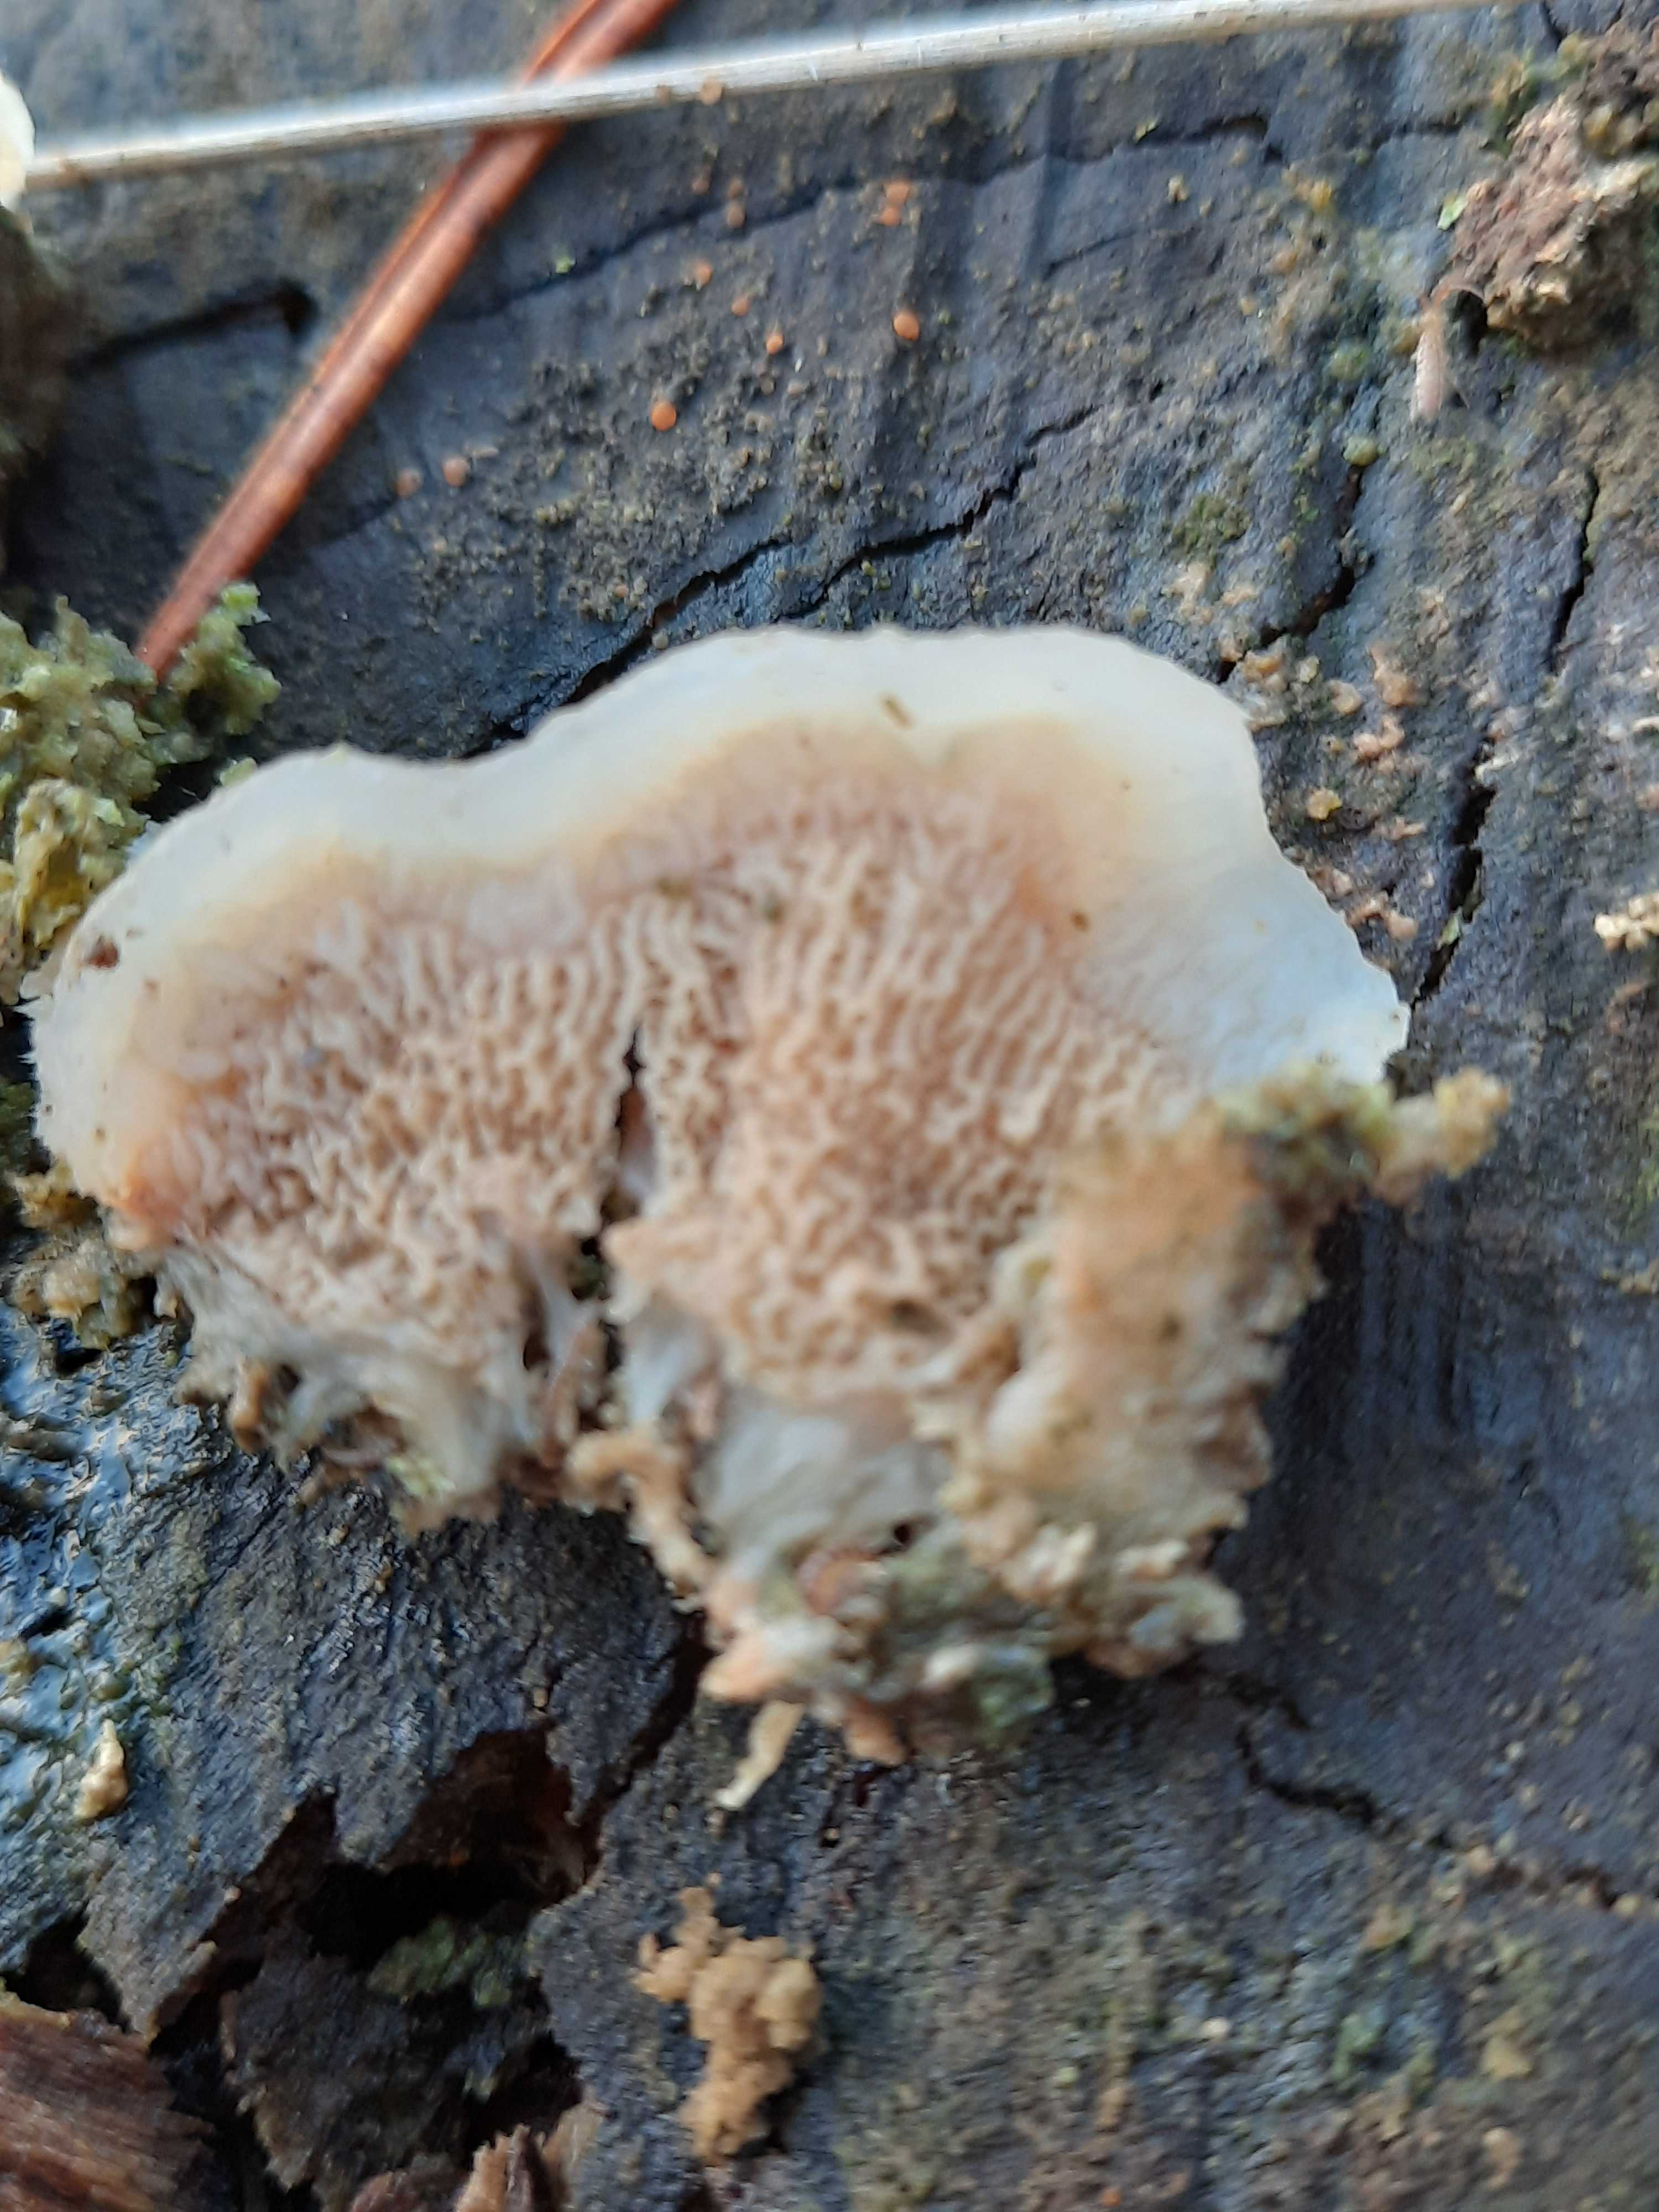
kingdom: Fungi
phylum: Basidiomycota
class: Agaricomycetes
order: Polyporales
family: Meruliaceae
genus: Phlebia
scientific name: Phlebia tremellosa
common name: bævrende åresvamp
